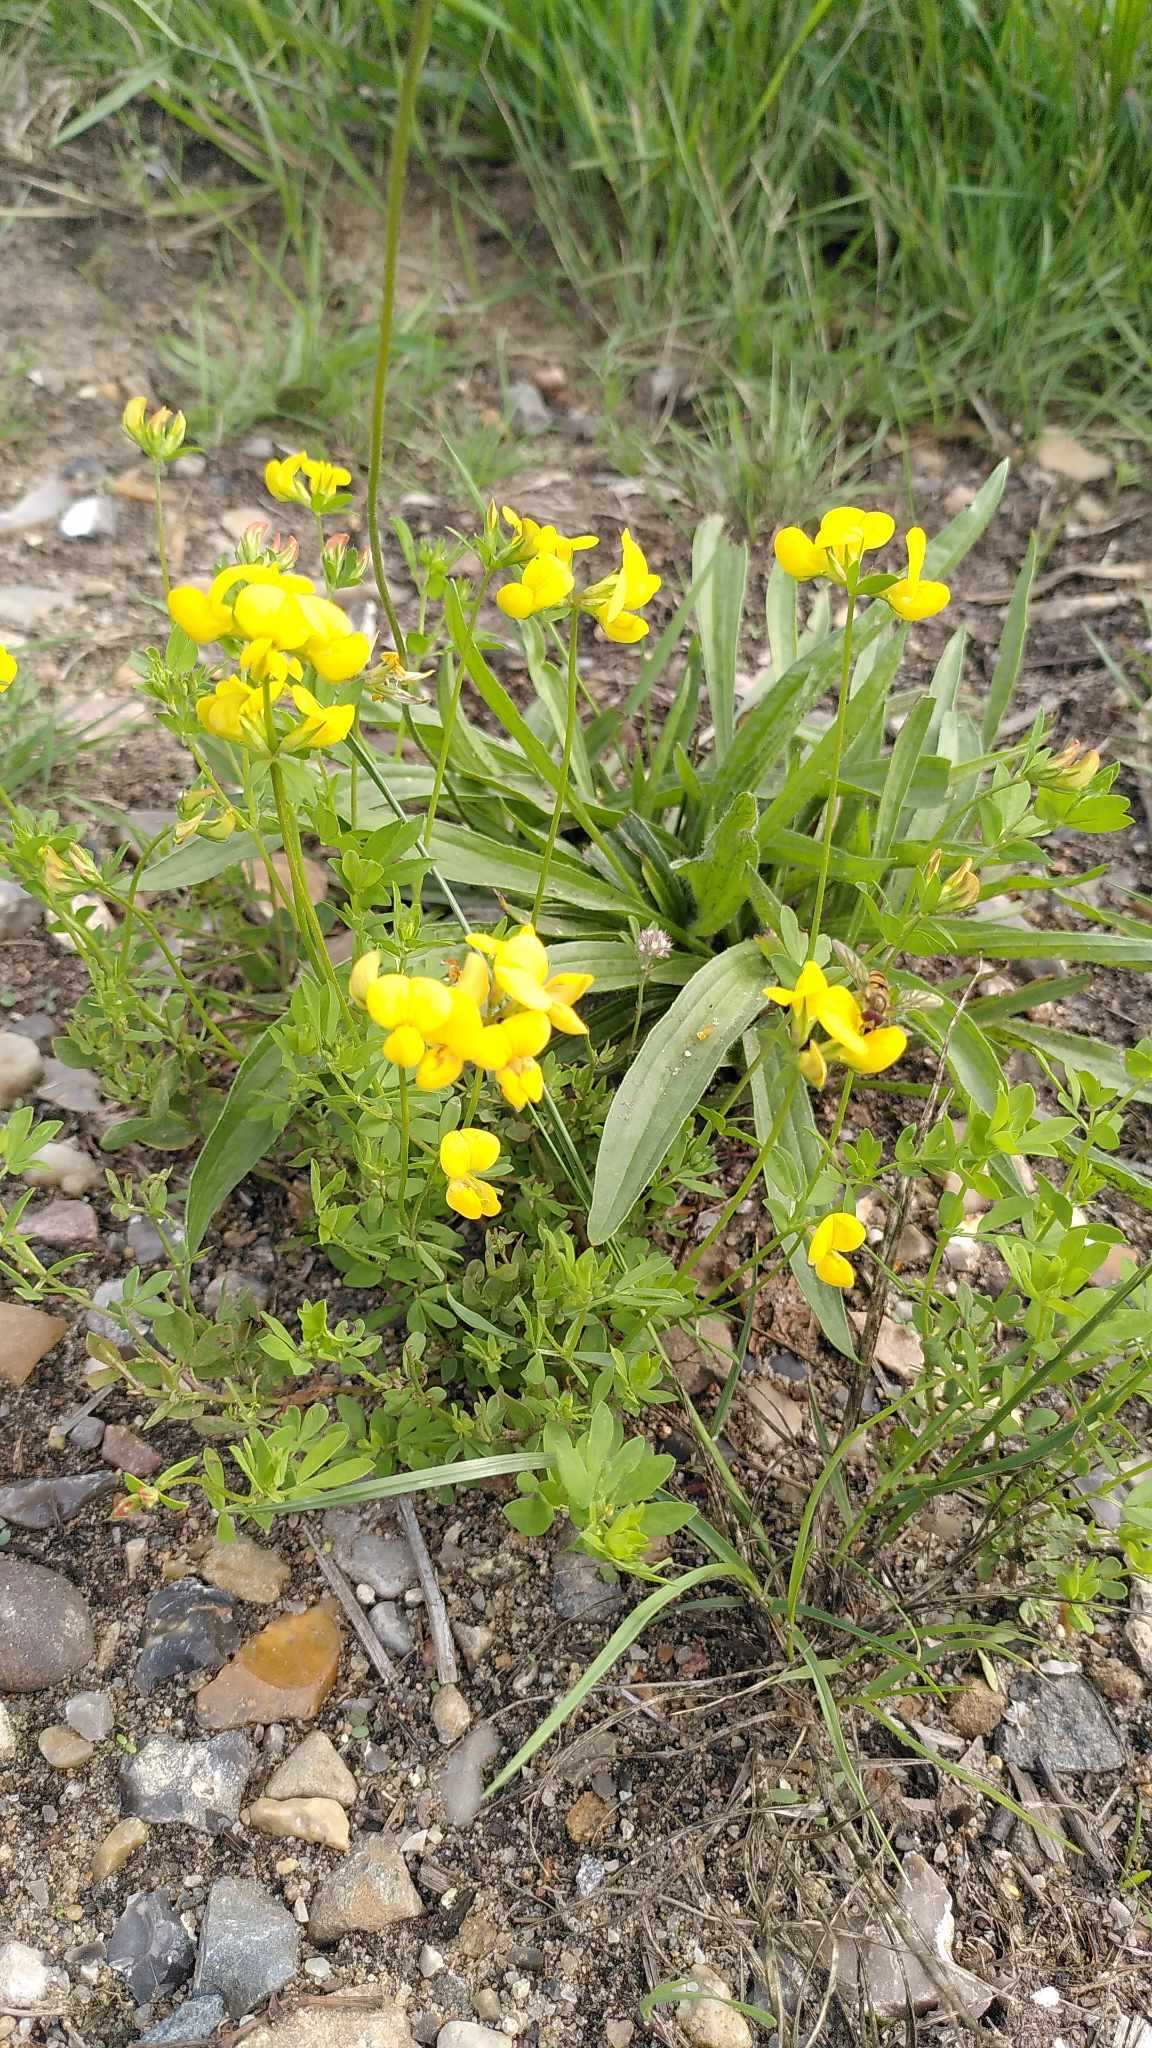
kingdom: Plantae
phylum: Tracheophyta
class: Magnoliopsida
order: Fabales
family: Fabaceae
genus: Lotus
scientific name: Lotus corniculatus
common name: Almindelig kællingetand
